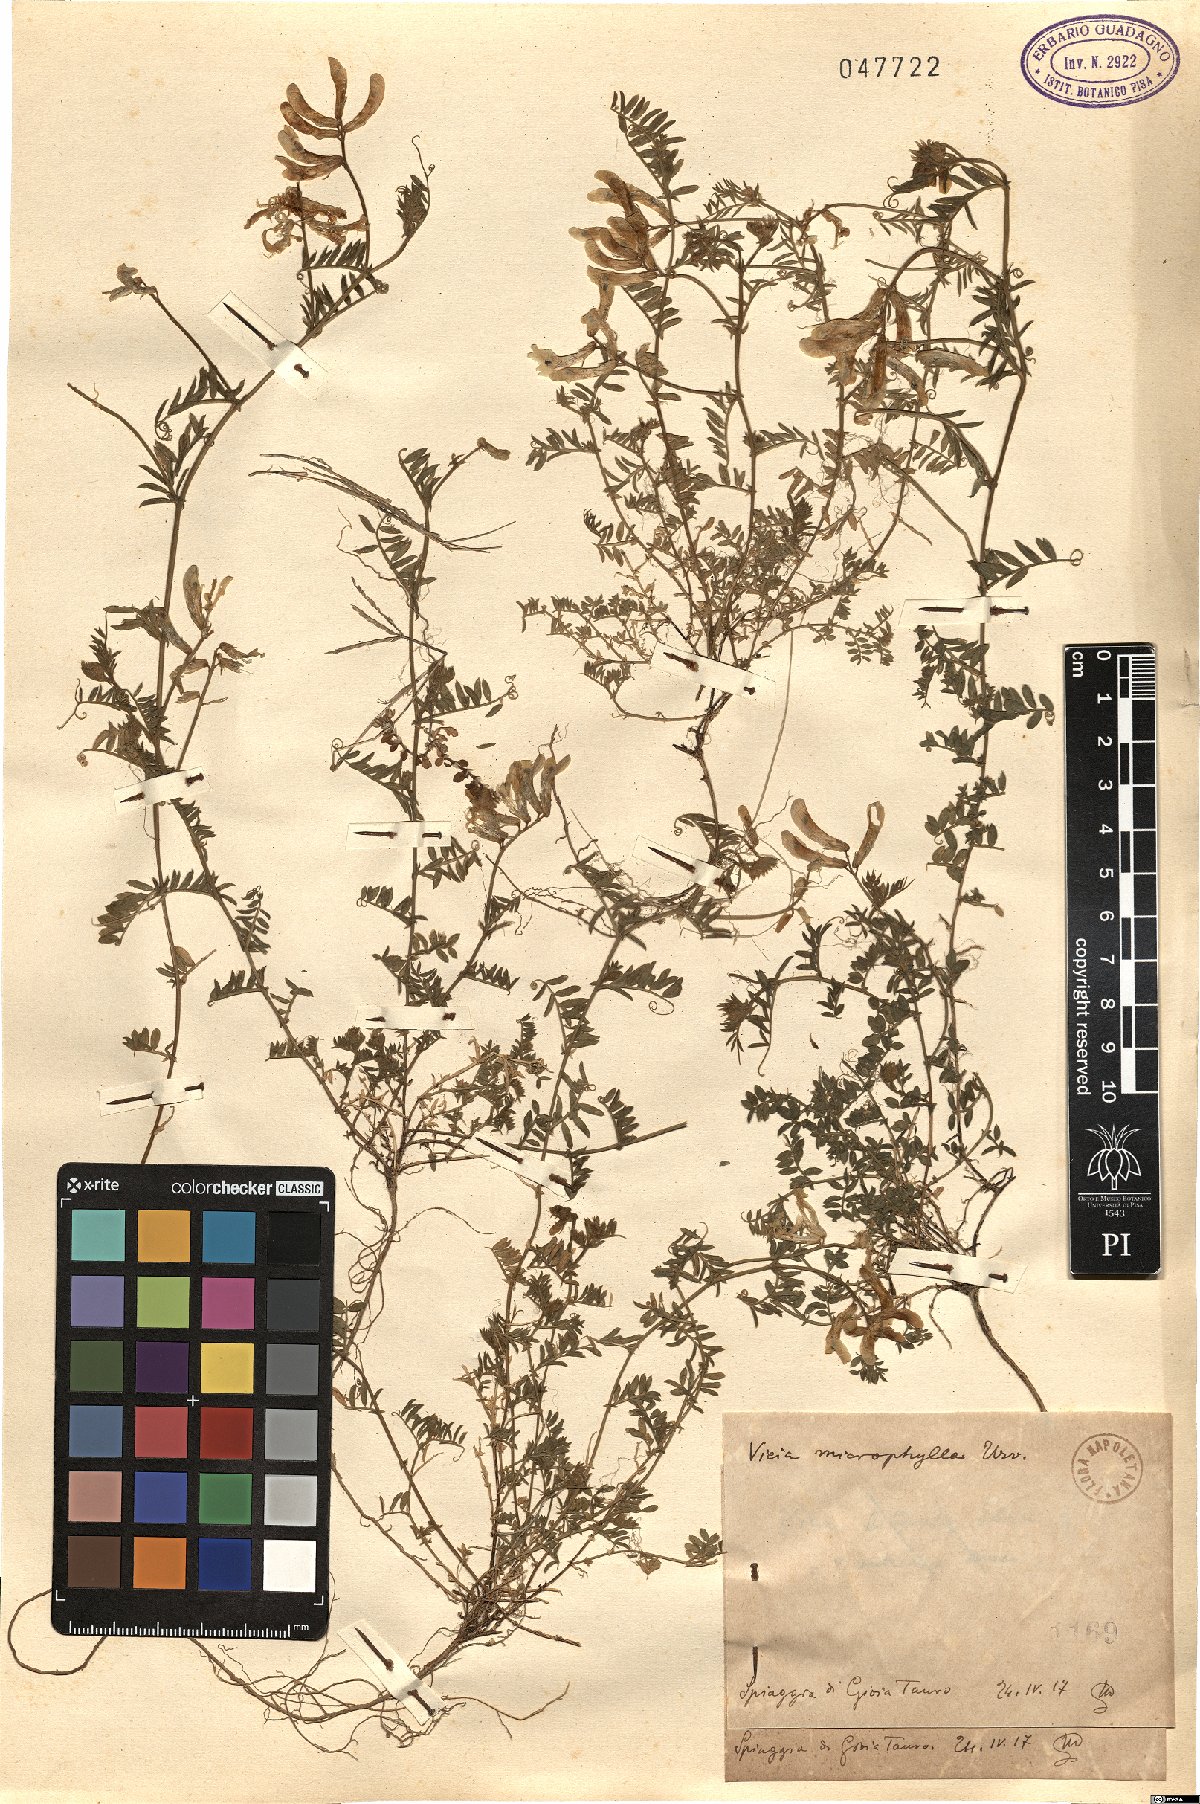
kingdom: Plantae
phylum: Tracheophyta
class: Magnoliopsida
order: Fabales
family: Fabaceae
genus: Vicia
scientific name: Vicia villosa
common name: Fodder vetch
